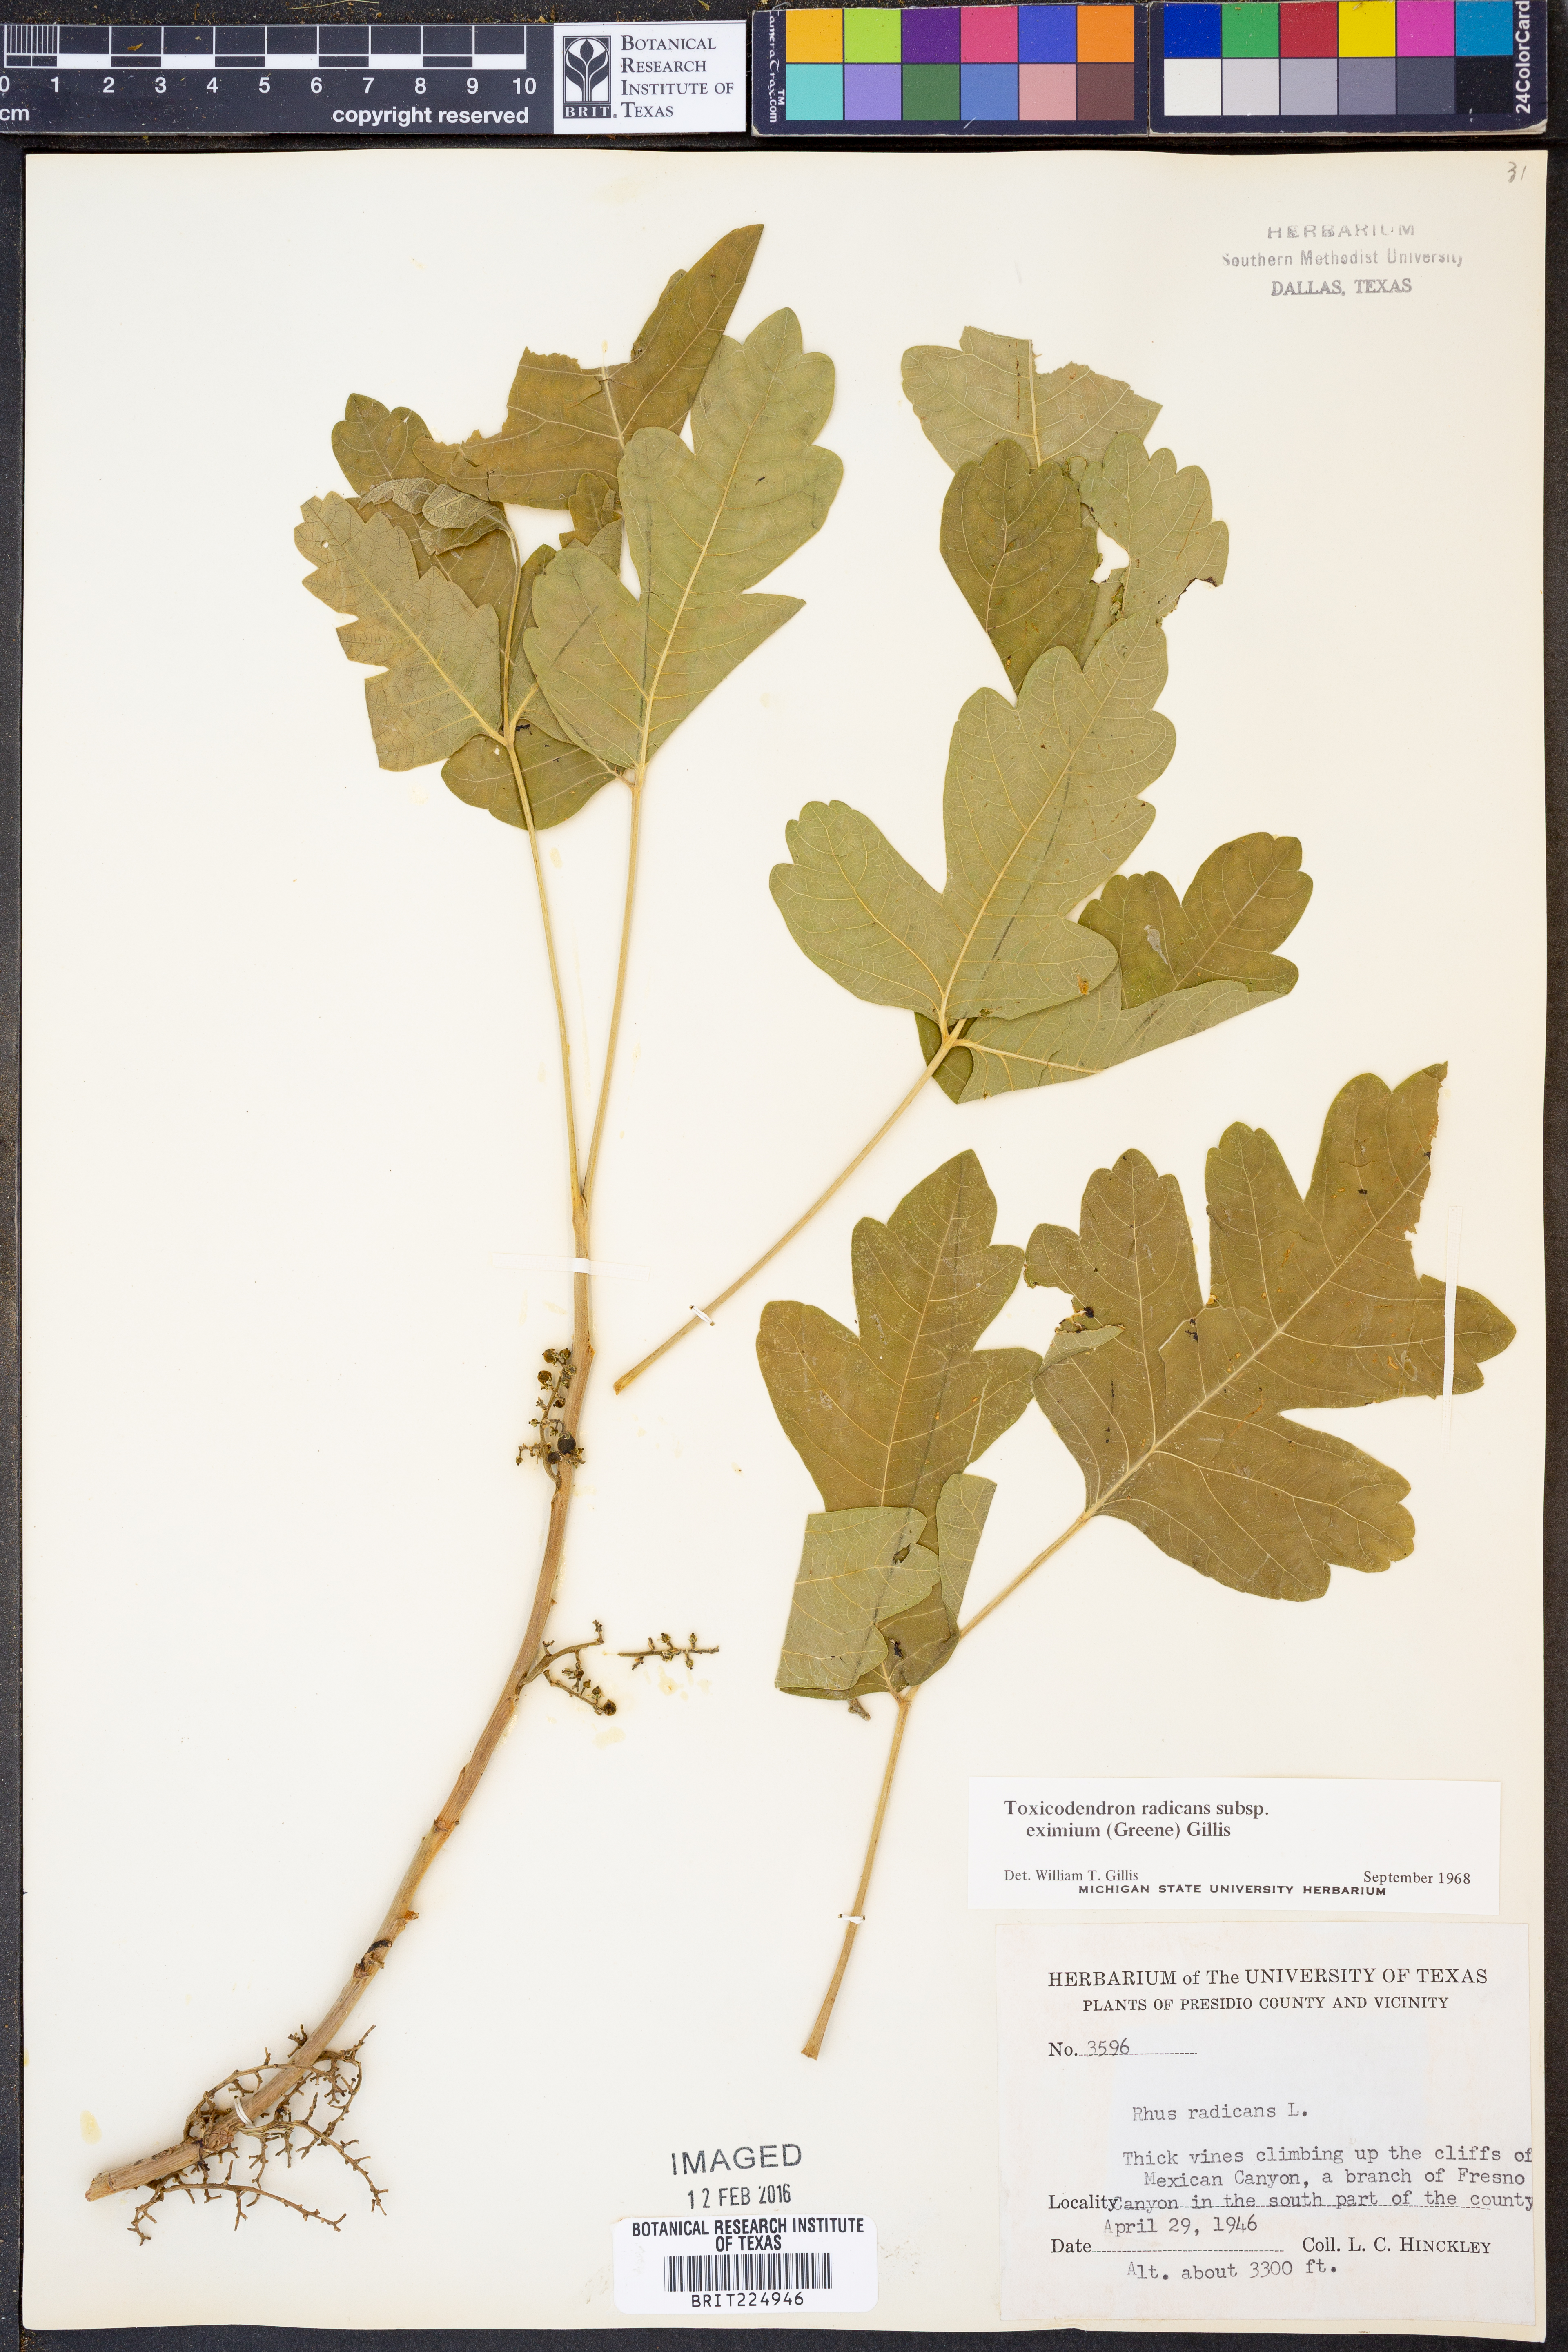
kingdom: Plantae
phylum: Tracheophyta
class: Magnoliopsida
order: Sapindales
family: Anacardiaceae
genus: Toxicodendron
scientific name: Toxicodendron radicans
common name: Poison ivy
